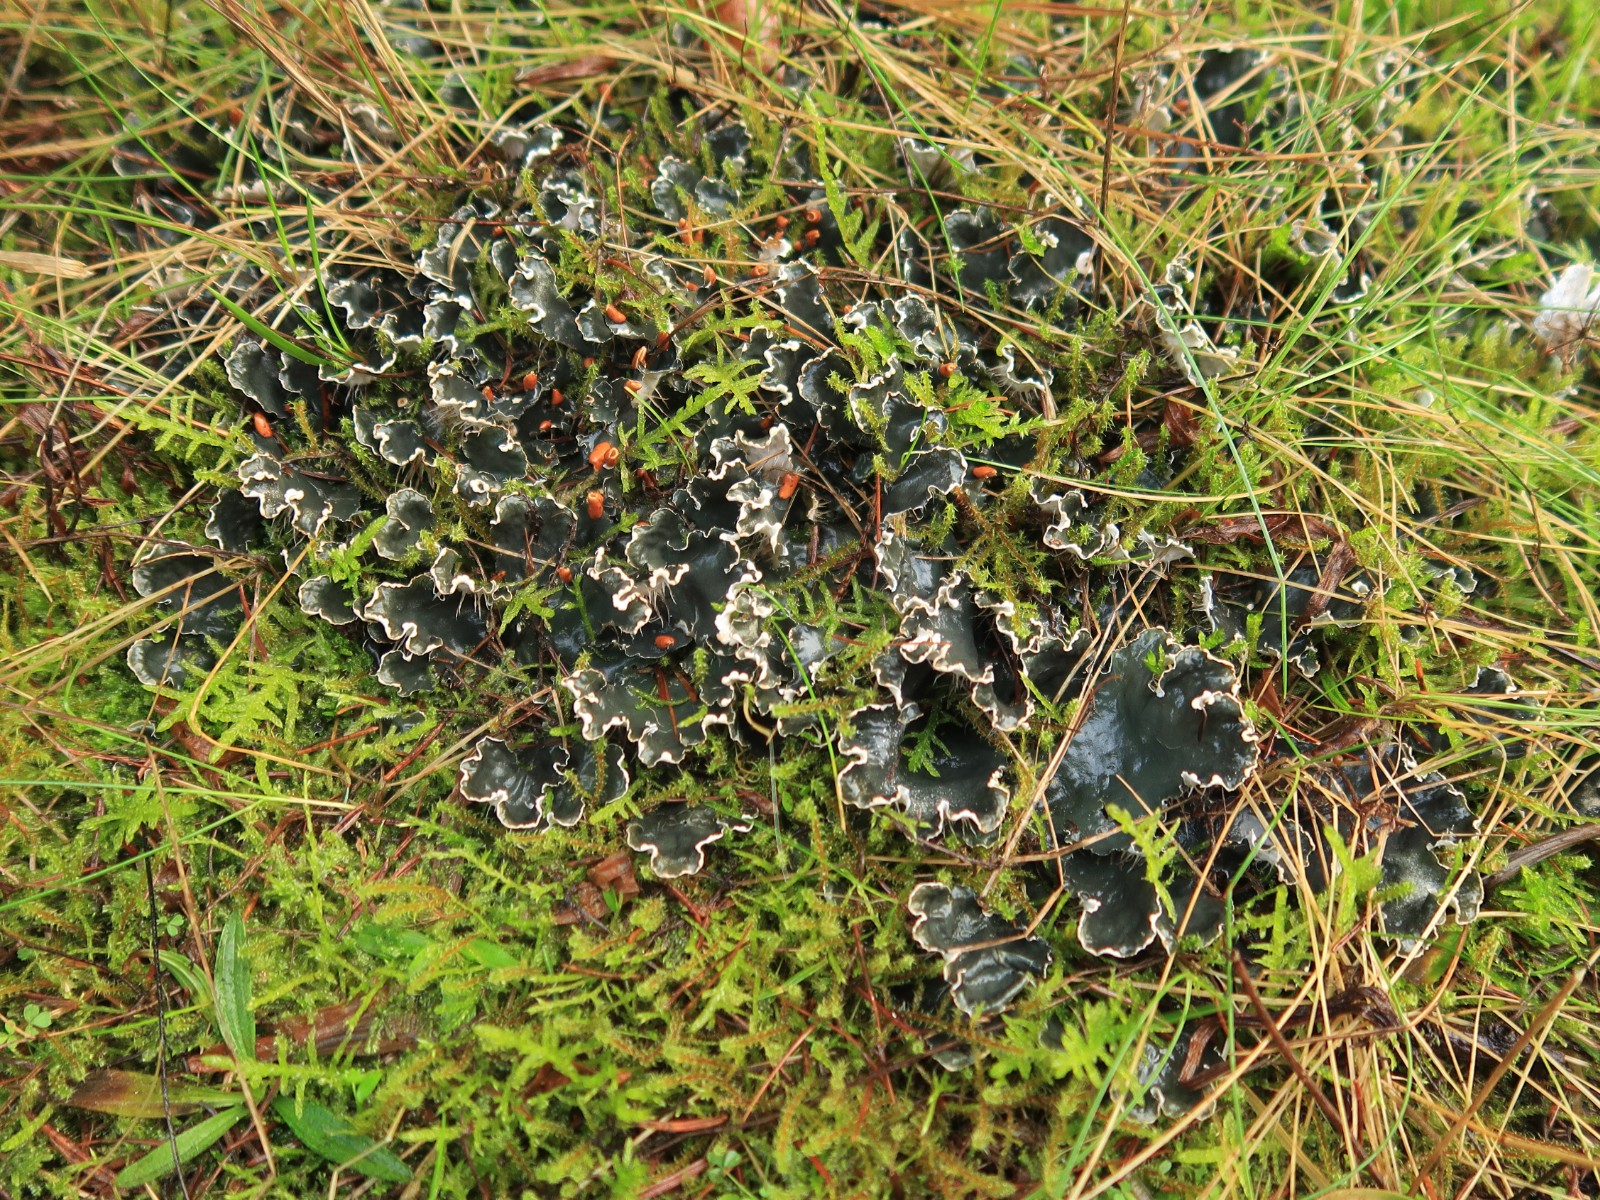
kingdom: Fungi
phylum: Ascomycota
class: Lecanoromycetes
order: Peltigerales
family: Peltigeraceae
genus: Peltigera
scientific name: Peltigera hymenina
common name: hinde-skjoldlav
